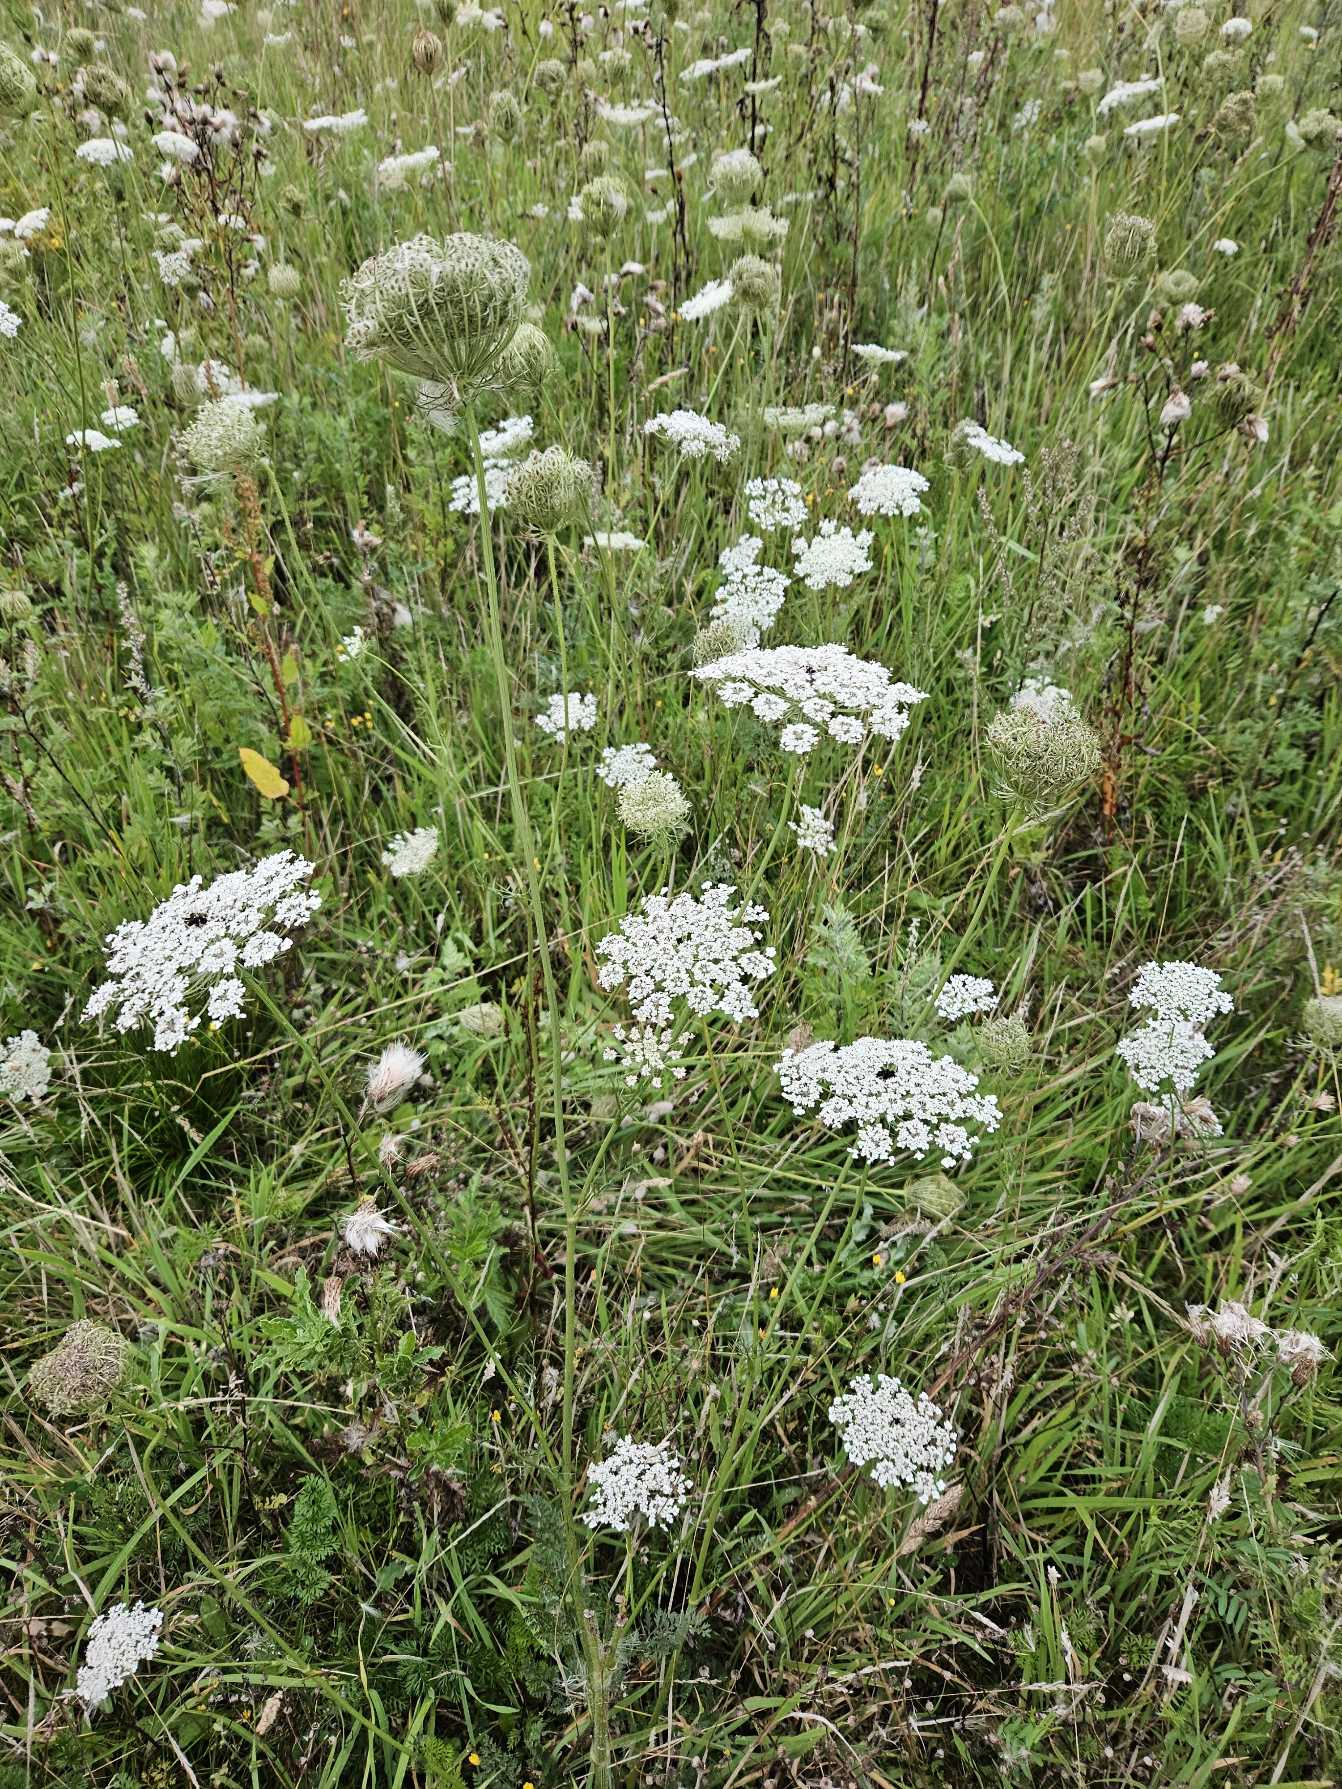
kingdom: Plantae
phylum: Tracheophyta
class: Magnoliopsida
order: Apiales
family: Apiaceae
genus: Daucus
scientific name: Daucus carota
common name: Gulerod
